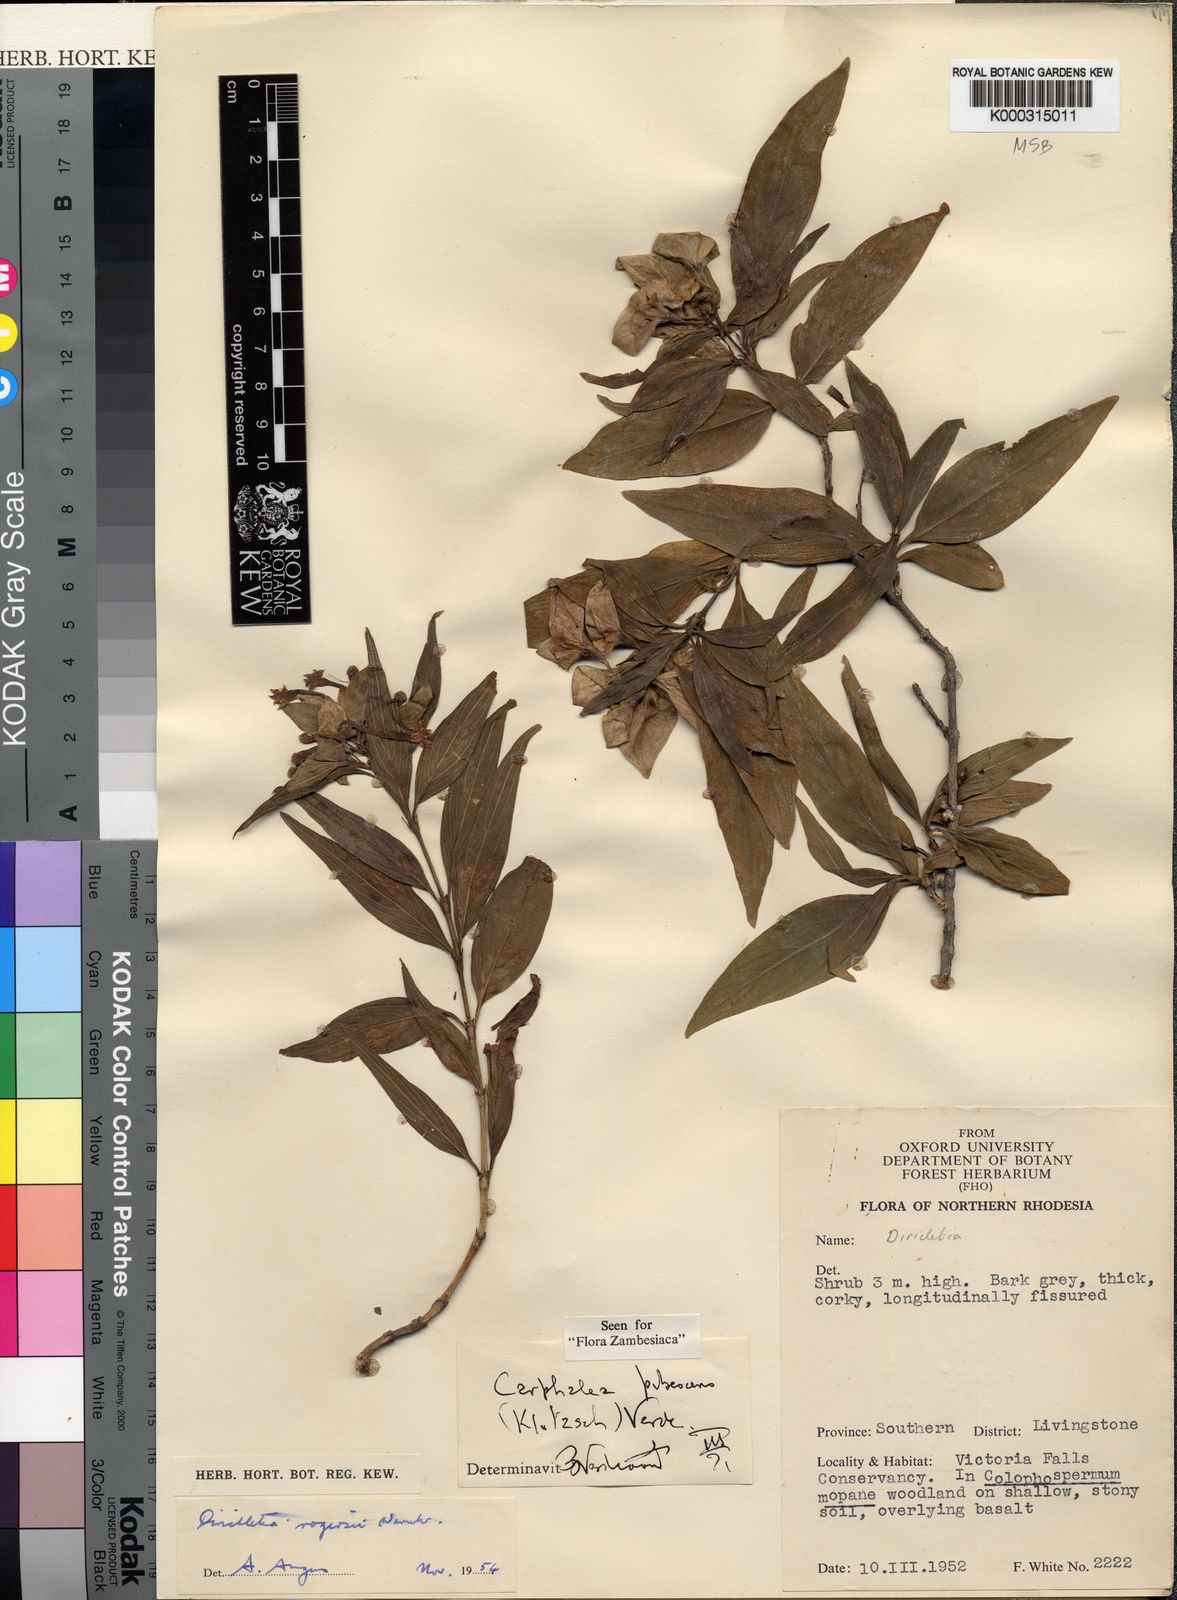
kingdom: Plantae
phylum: Tracheophyta
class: Magnoliopsida
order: Gentianales
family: Rubiaceae
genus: Dirichletia
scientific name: Dirichletia pubescens
